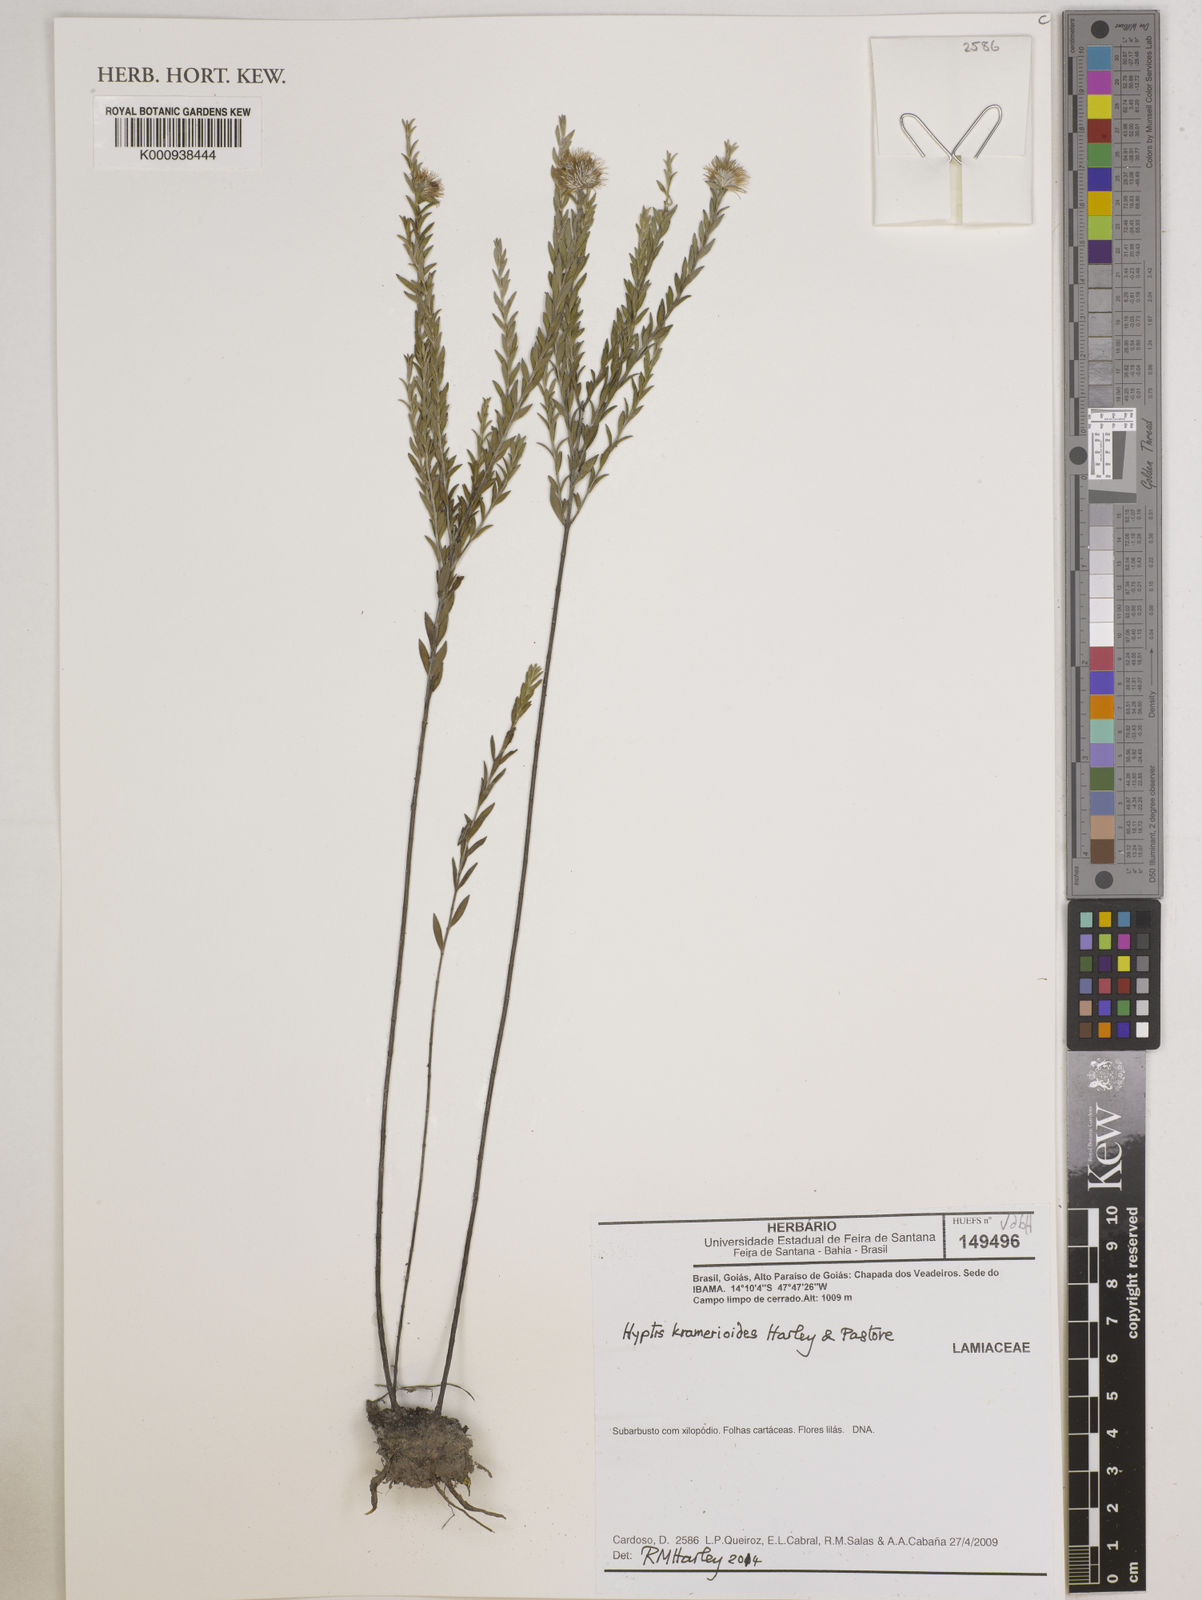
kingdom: Plantae
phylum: Tracheophyta
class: Magnoliopsida
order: Lamiales
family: Lamiaceae
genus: Hyptis
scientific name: Hyptis kramerioides
